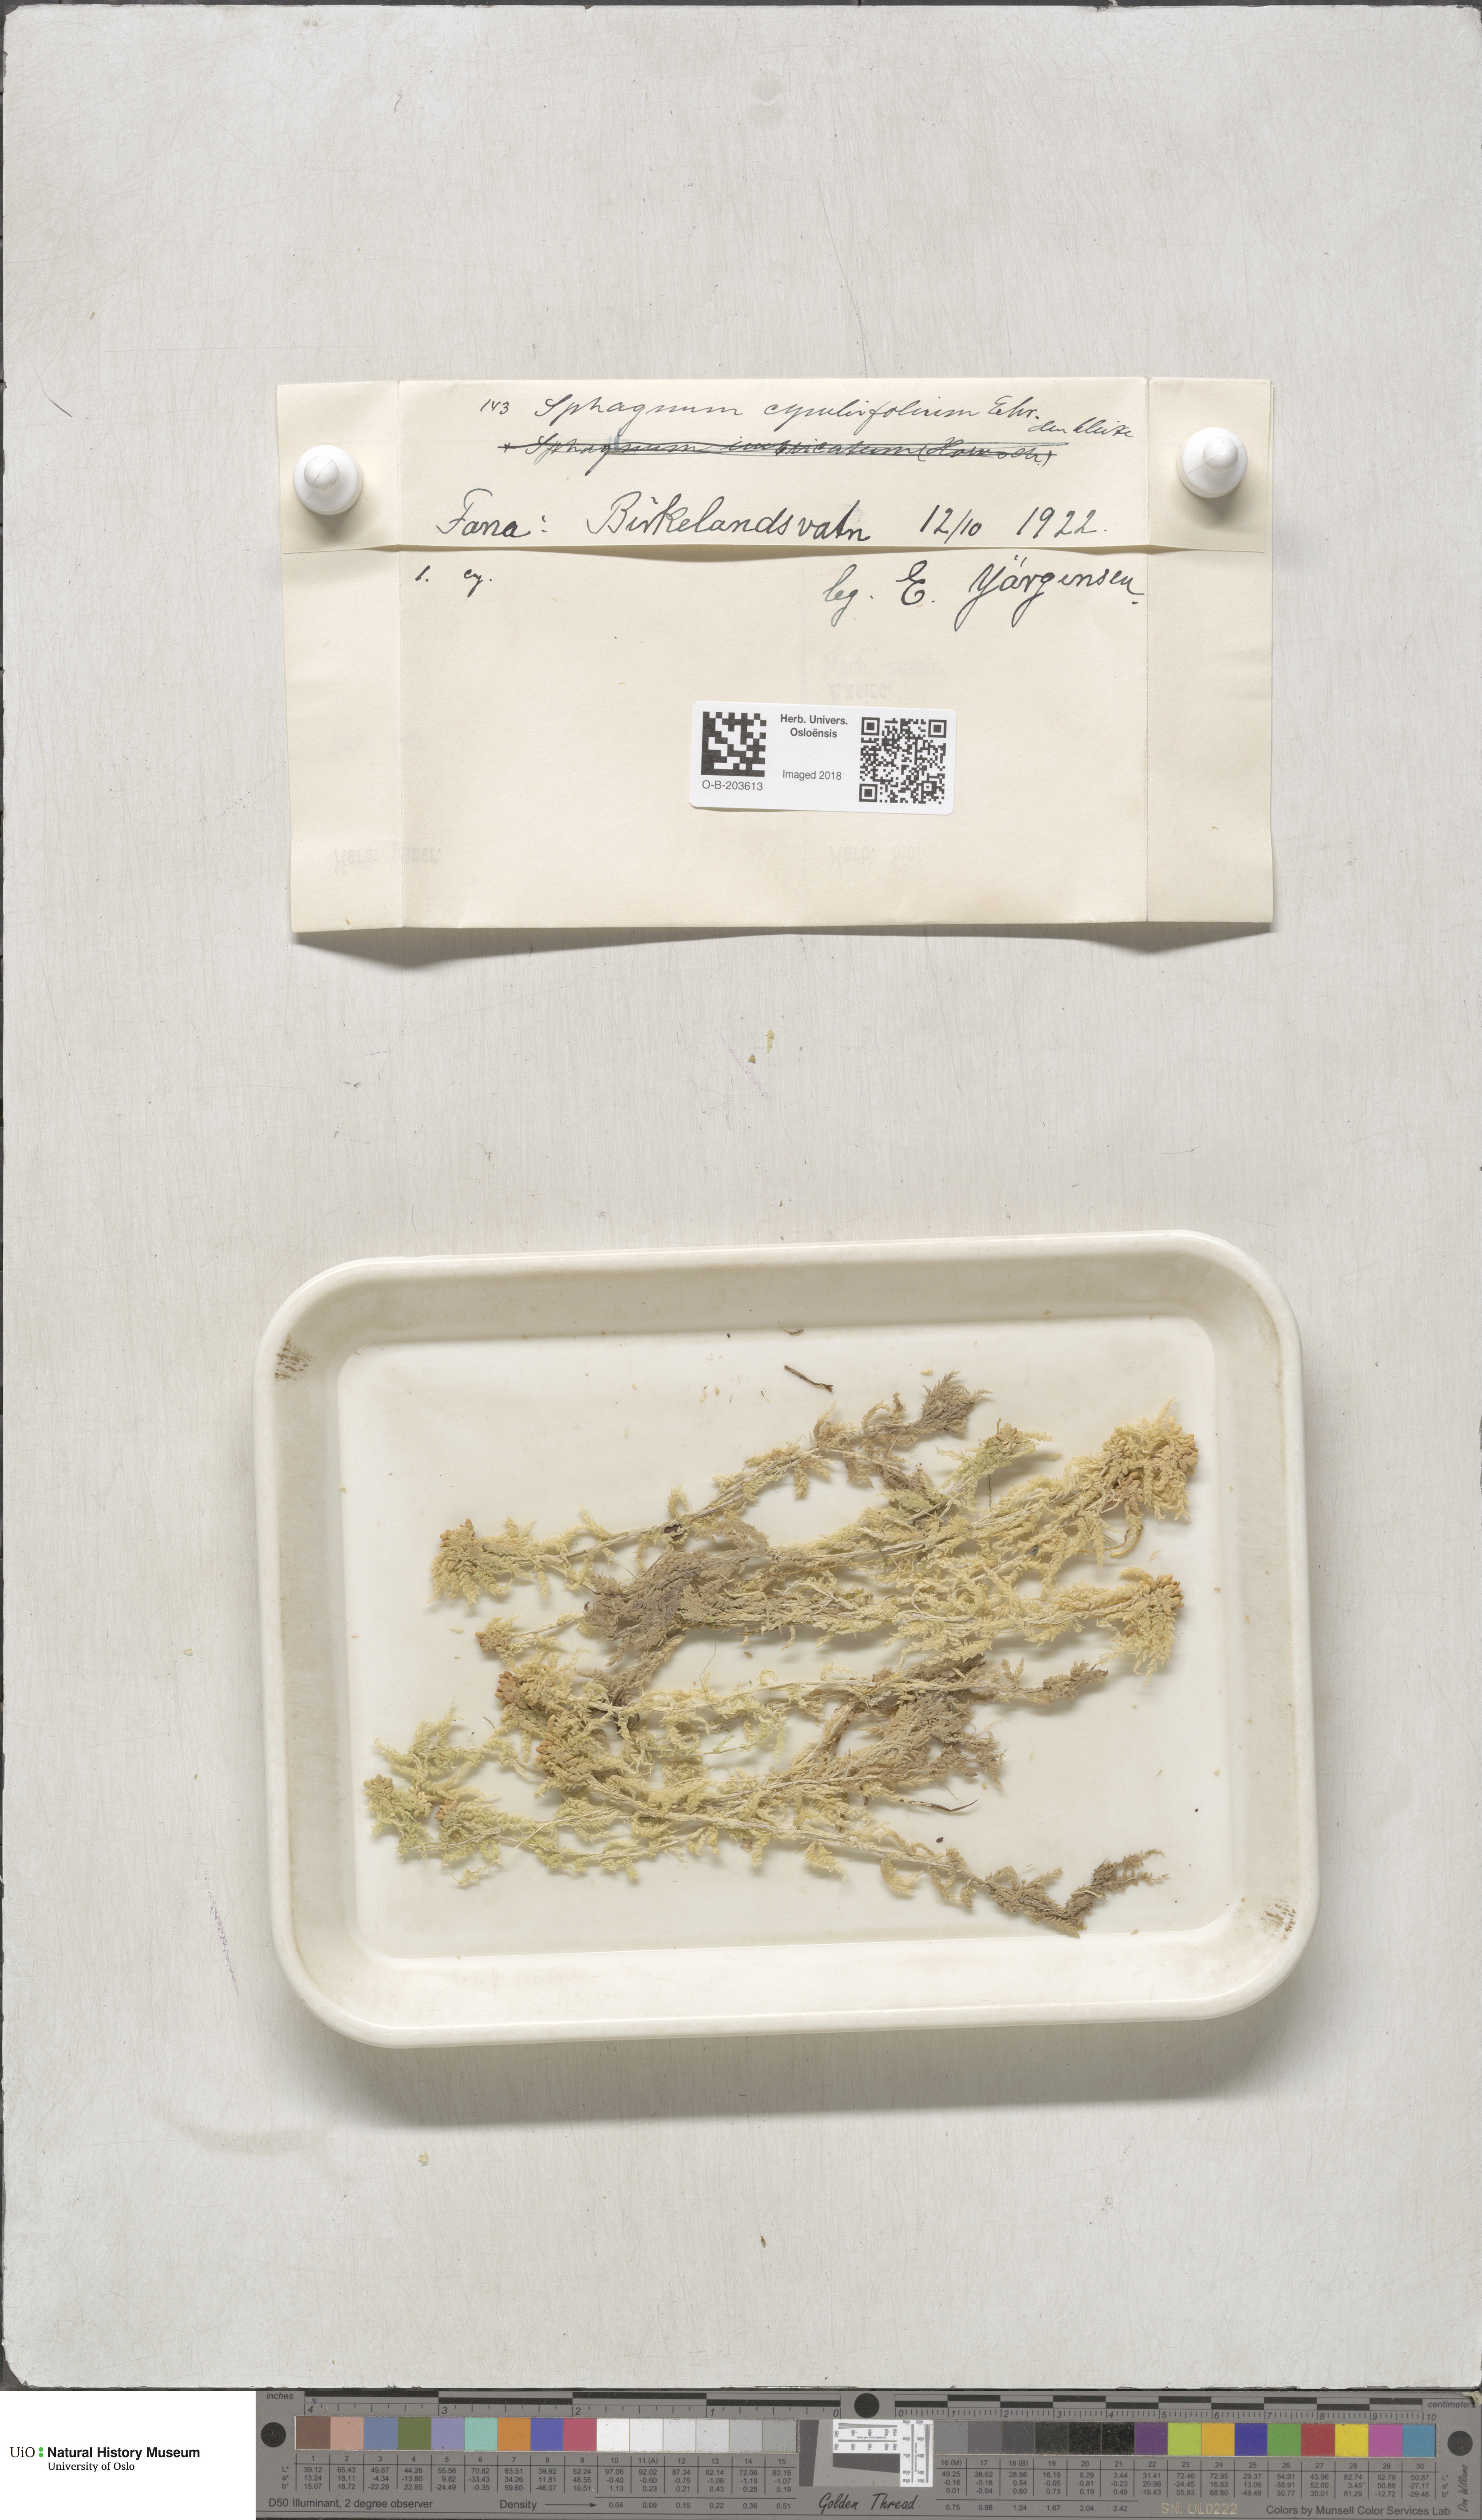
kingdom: Plantae
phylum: Bryophyta
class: Sphagnopsida
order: Sphagnales
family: Sphagnaceae
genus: Sphagnum
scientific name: Sphagnum palustre
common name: Blunt-leaved bog-moss
